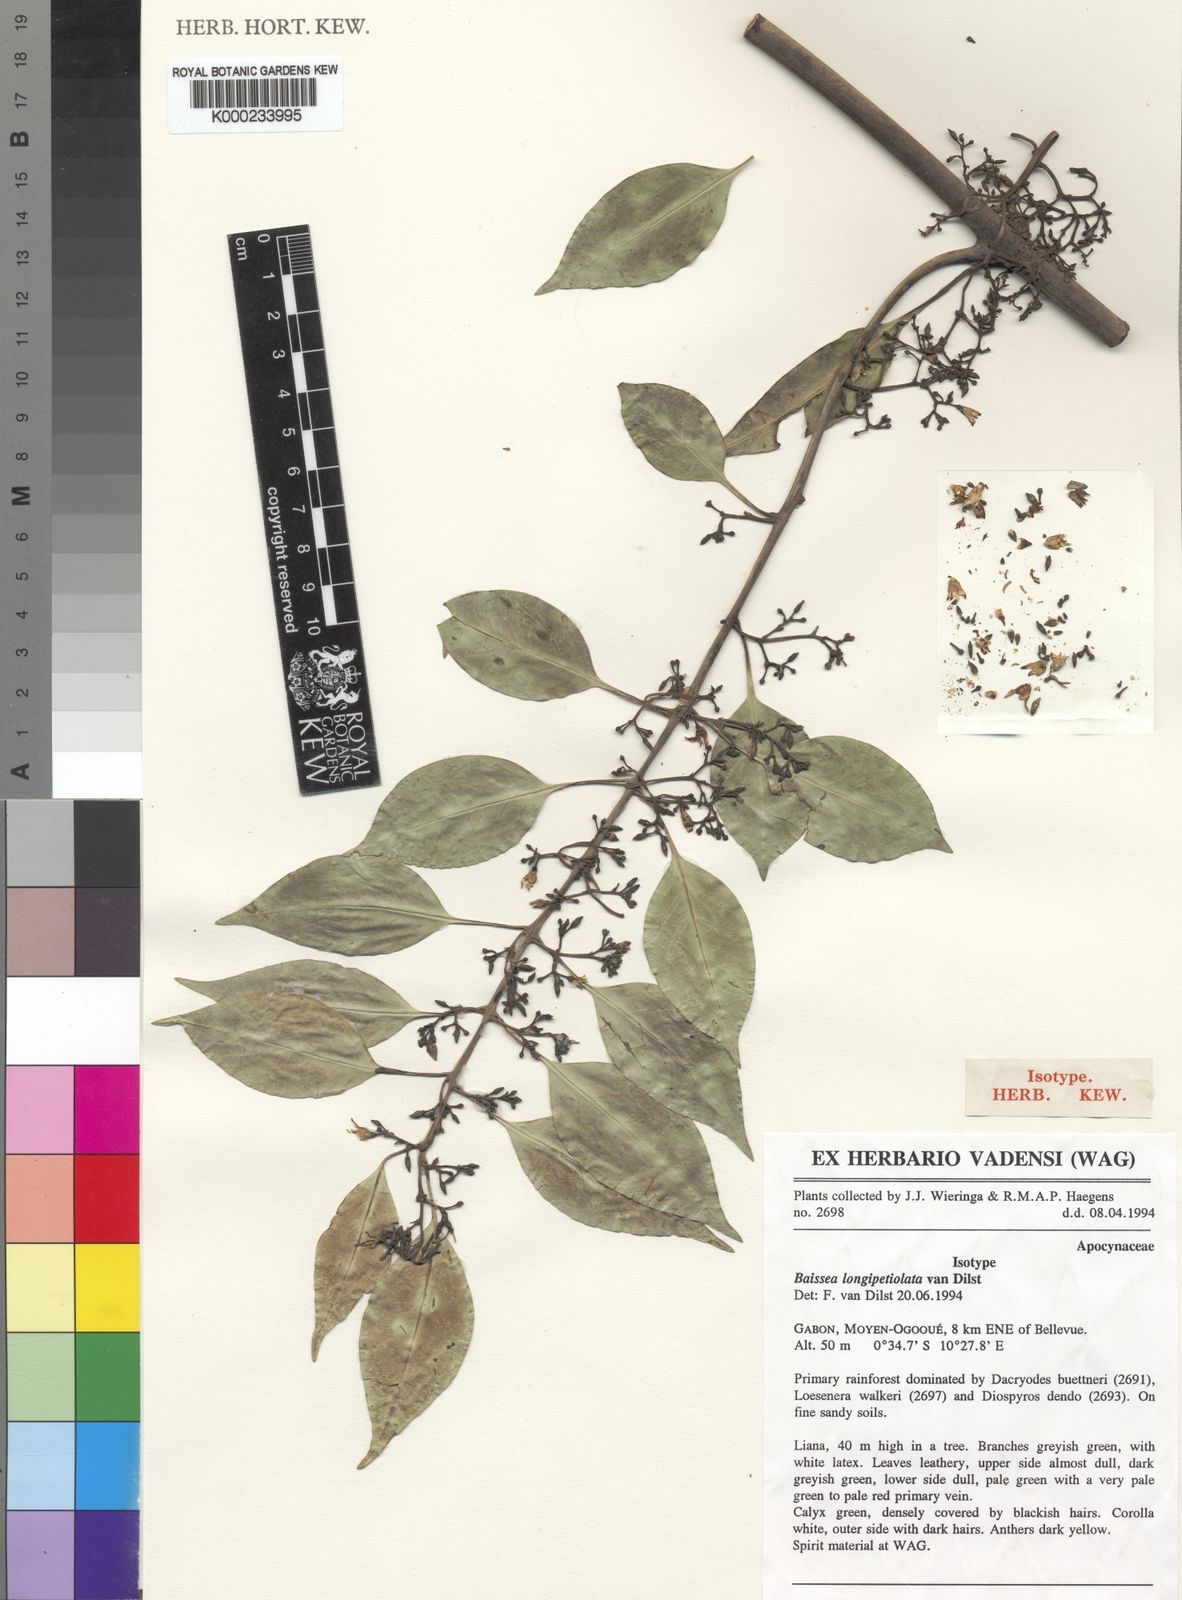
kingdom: Plantae
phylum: Tracheophyta
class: Magnoliopsida
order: Gentianales
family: Apocynaceae
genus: Baissea
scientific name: Baissea longipetiolata
